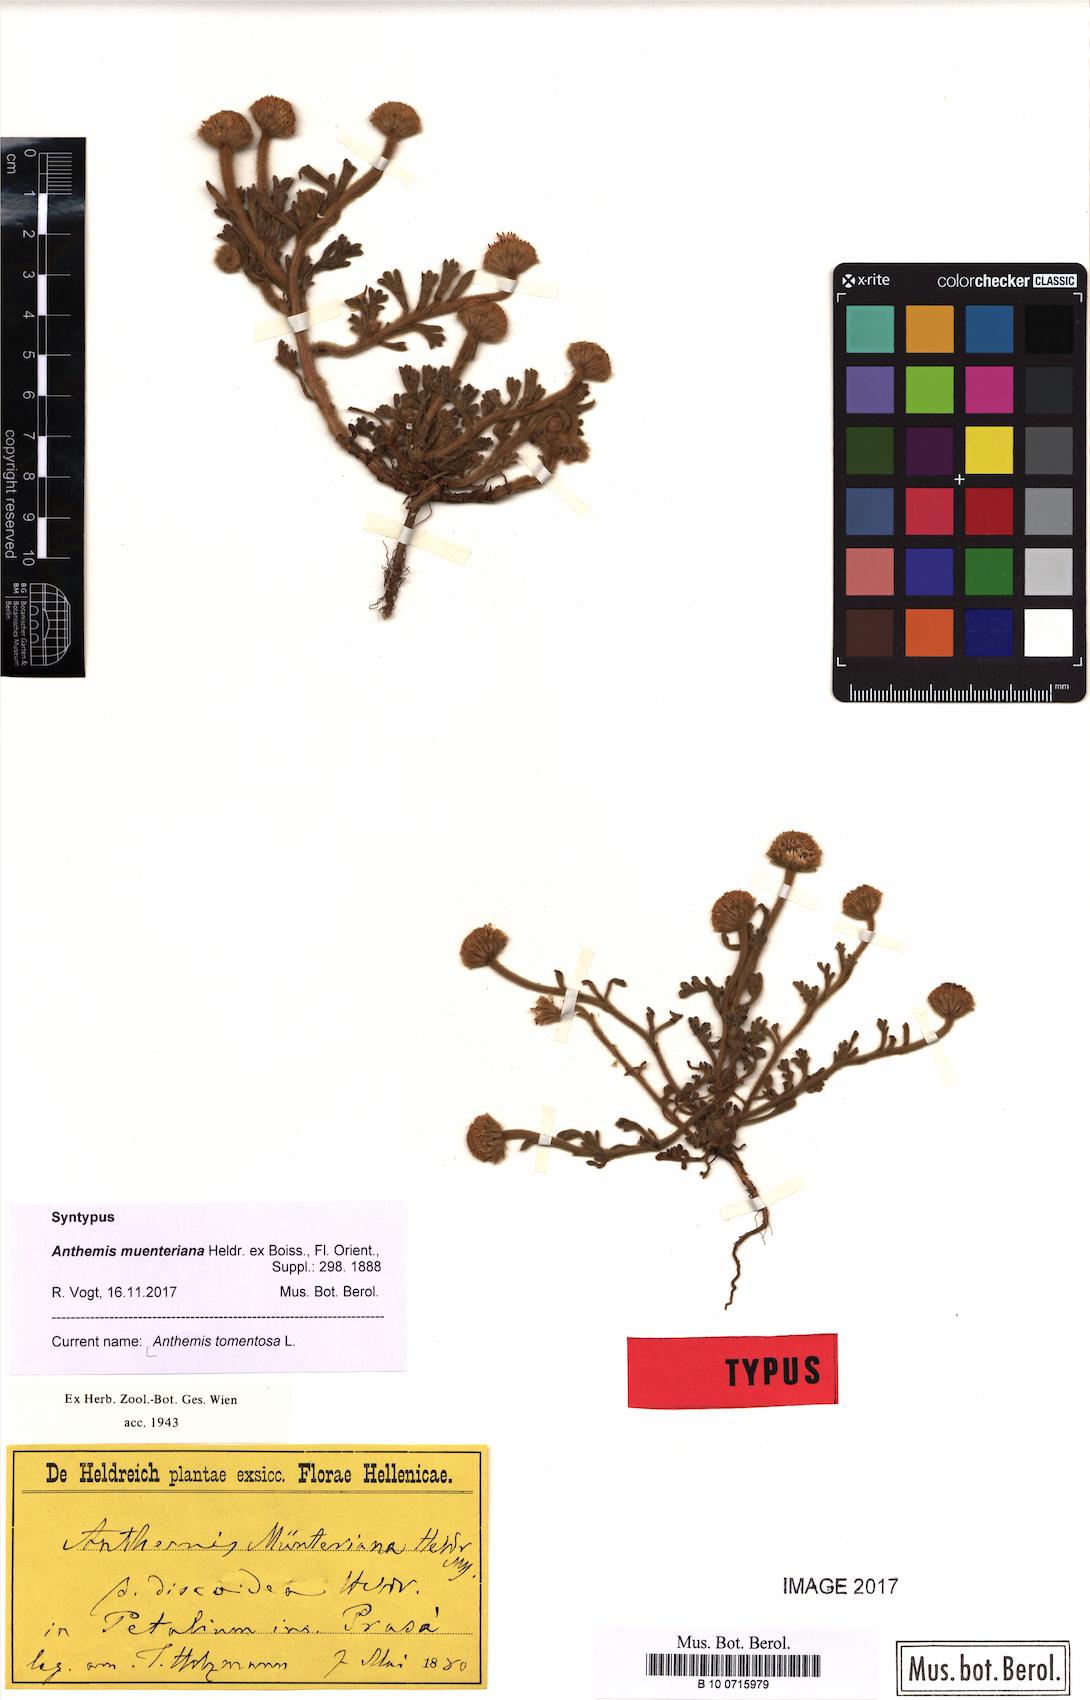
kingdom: Plantae
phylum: Tracheophyta
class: Magnoliopsida
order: Asterales
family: Asteraceae
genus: Anthemis
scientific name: Anthemis tomentosa
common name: Woolly chamomile
